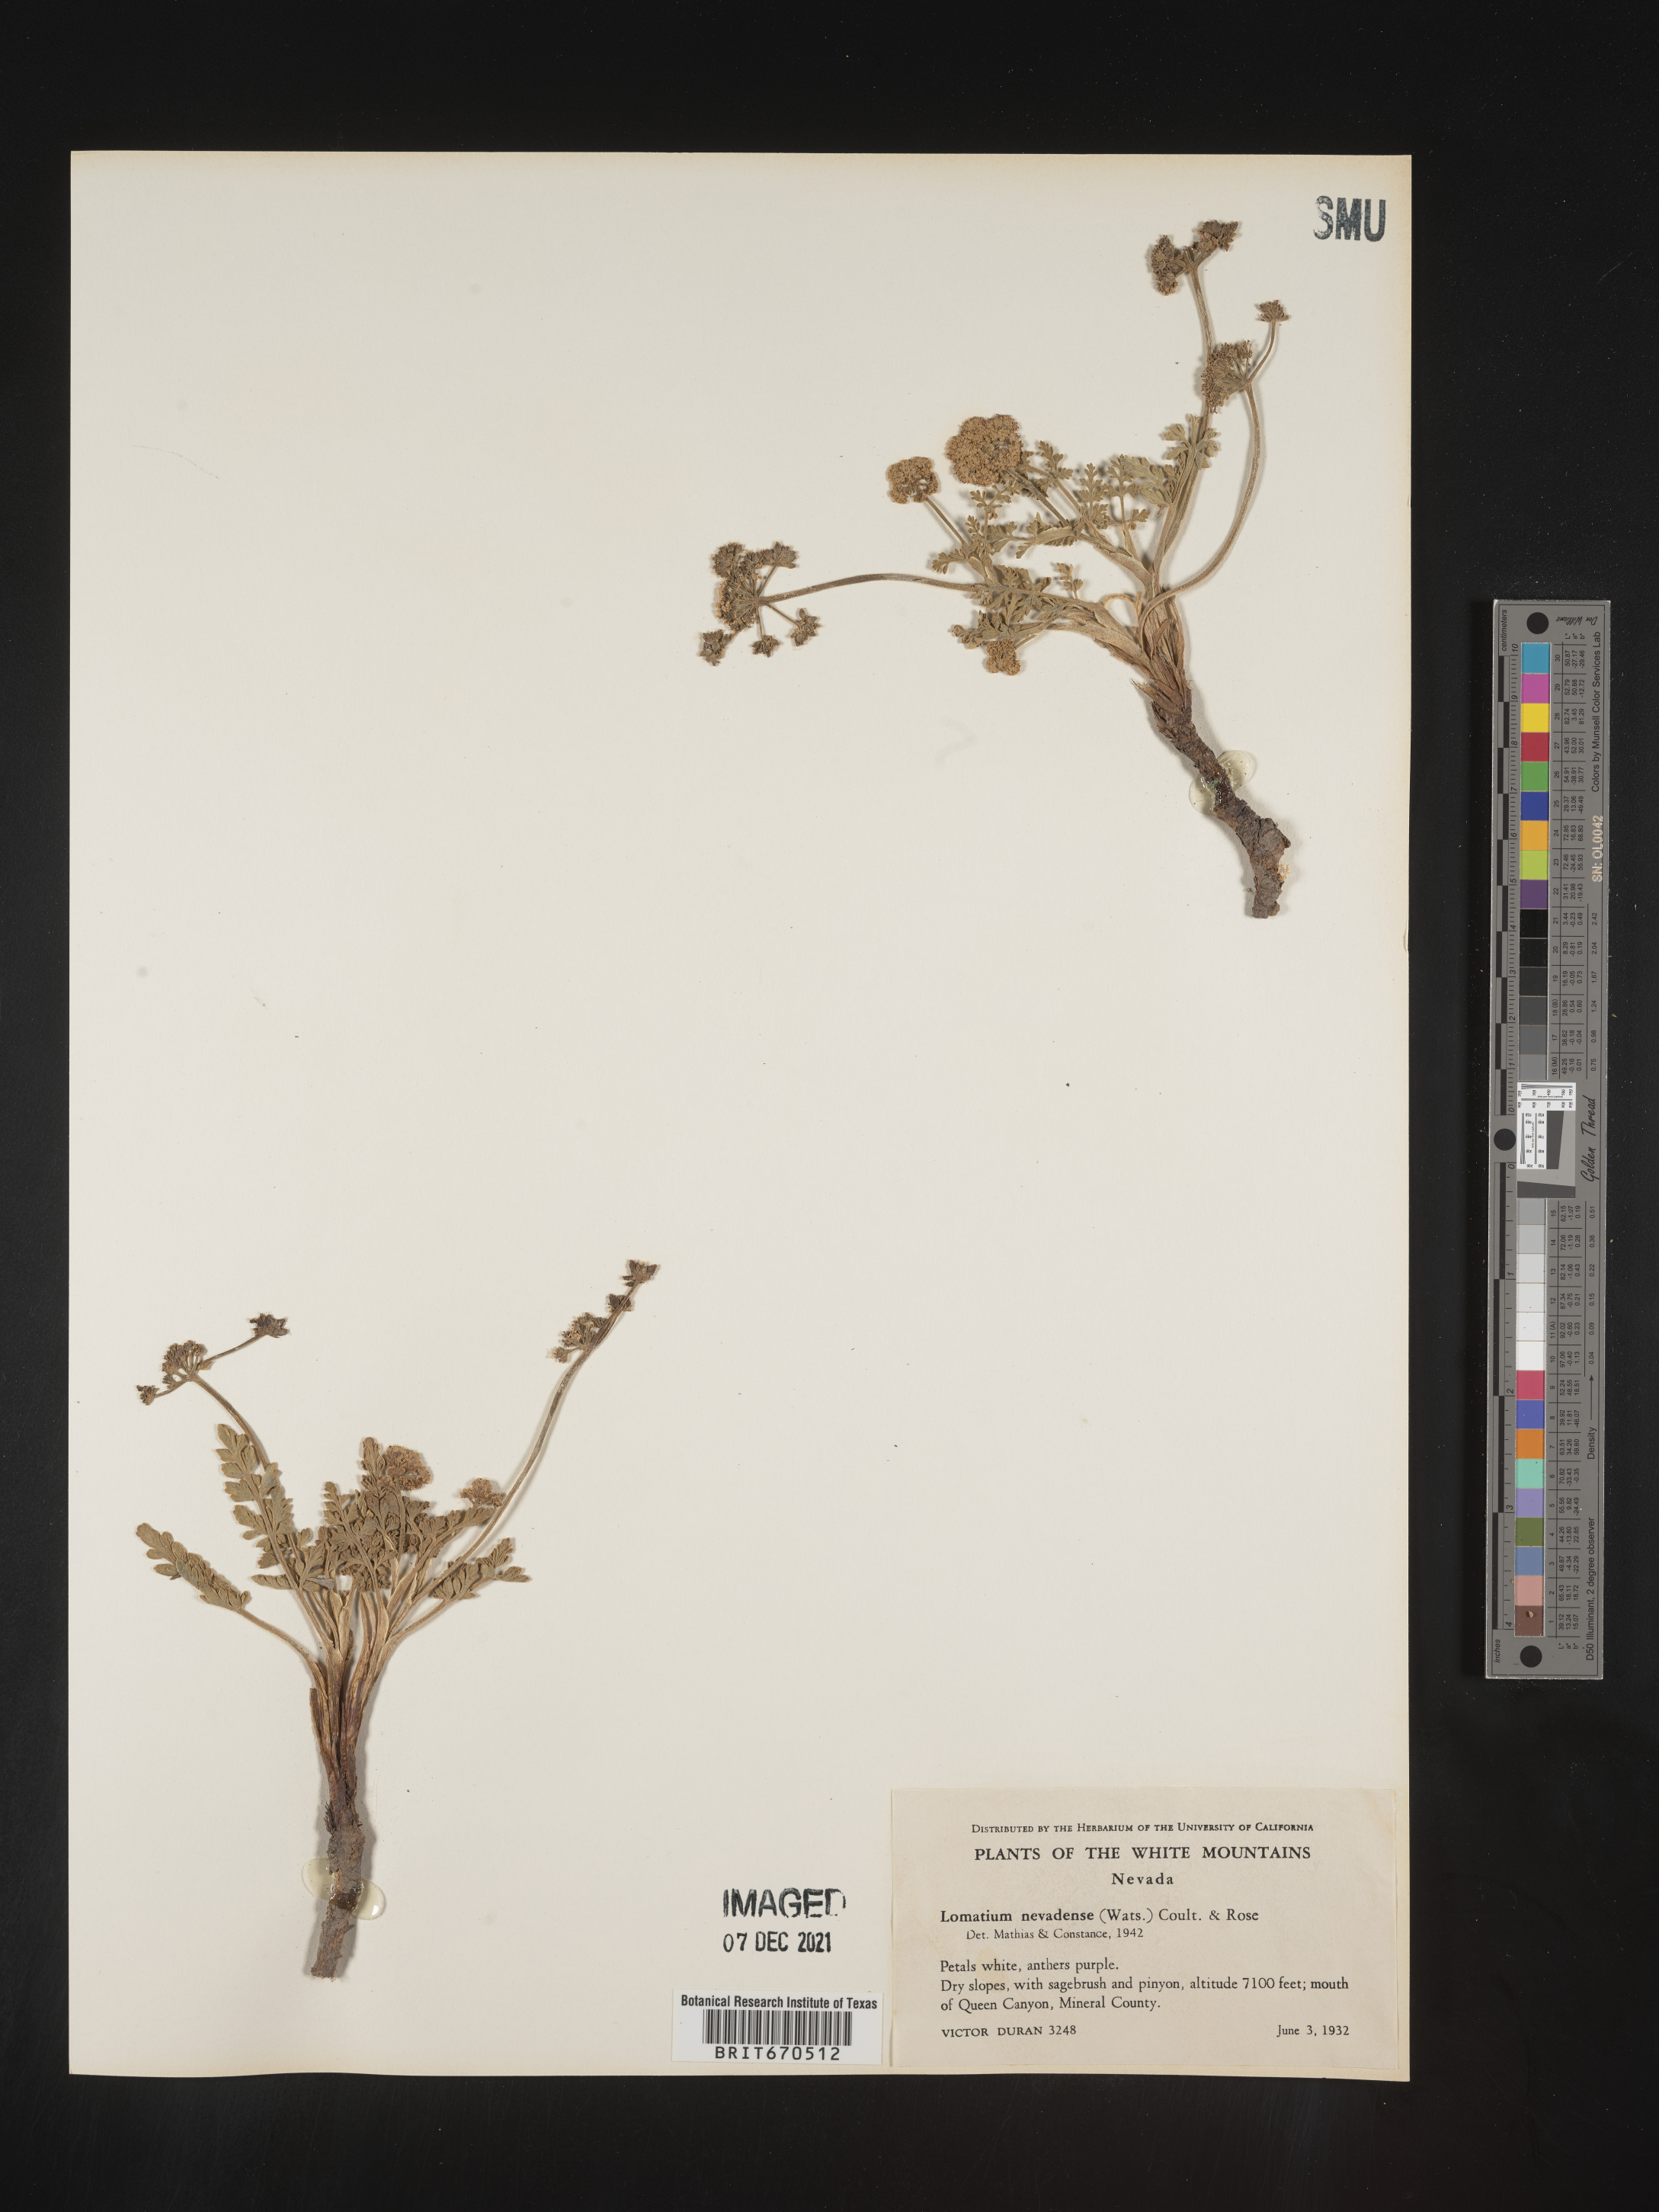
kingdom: Plantae
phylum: Tracheophyta
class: Magnoliopsida
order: Apiales
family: Apiaceae
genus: Lomatium
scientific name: Lomatium nevadense
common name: Nevada lomatium
